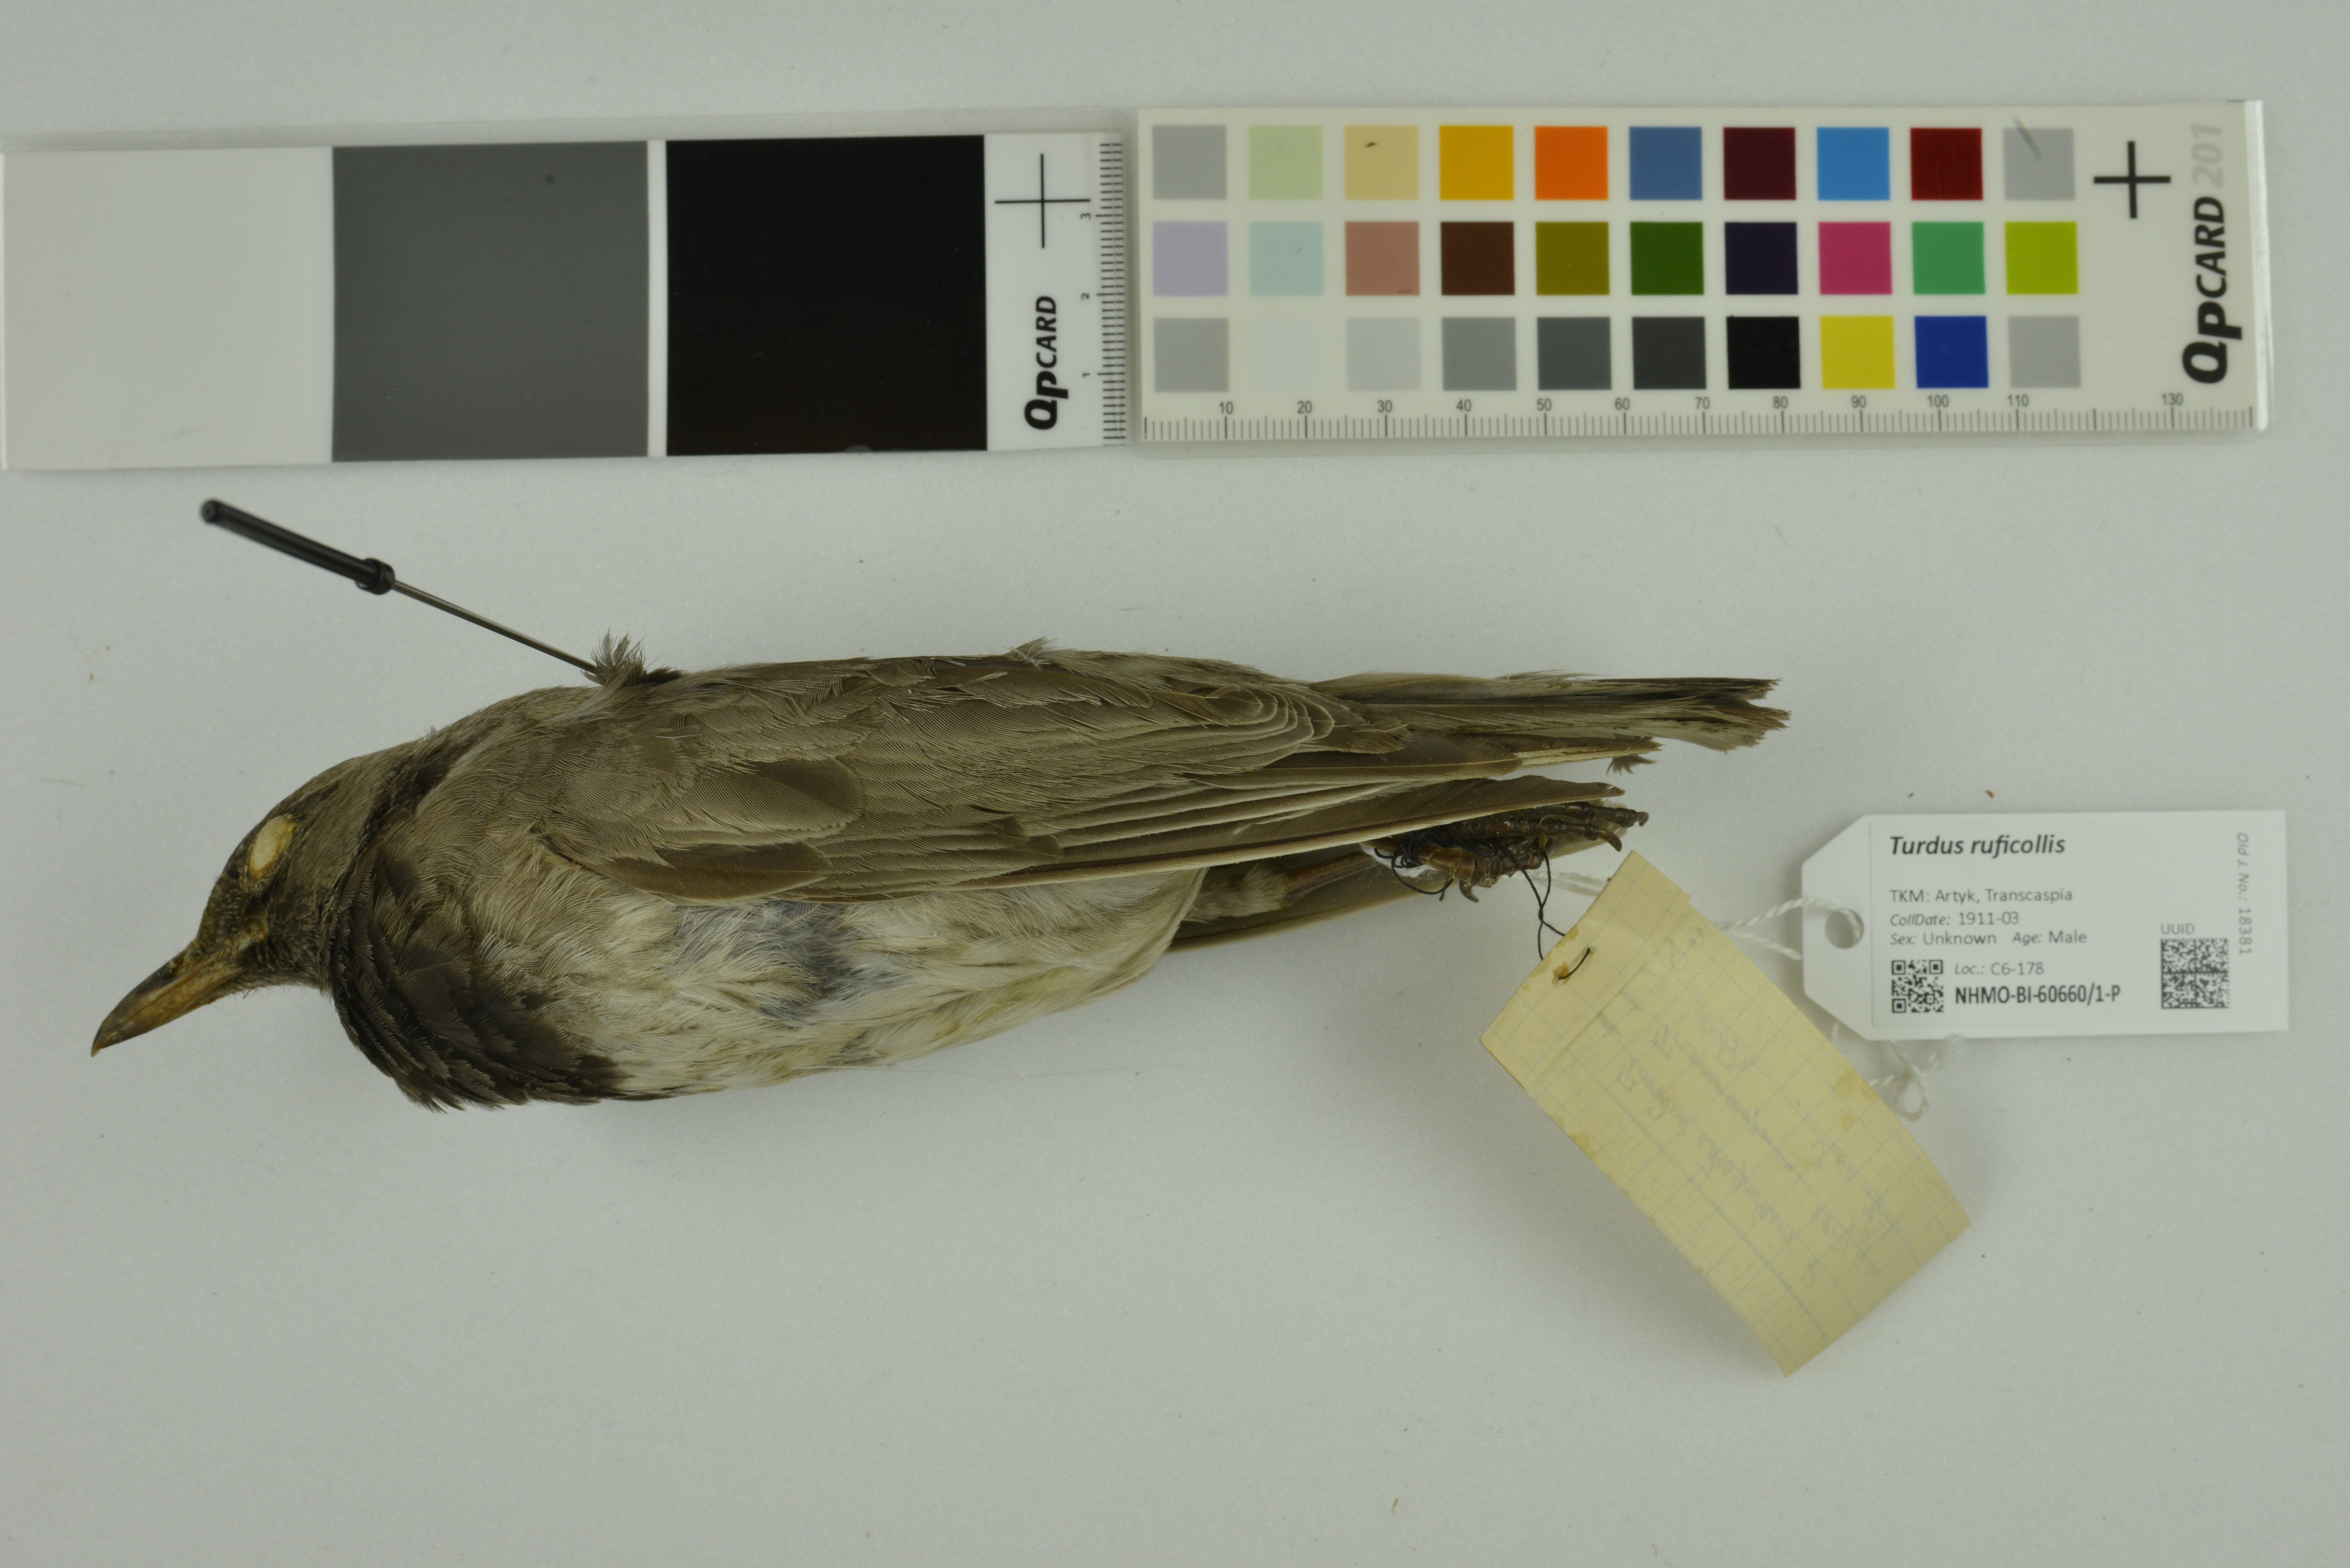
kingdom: Animalia
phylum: Chordata
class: Aves
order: Passeriformes
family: Turdidae
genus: Turdus
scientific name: Turdus ruficollis
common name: Red-throated thrush
